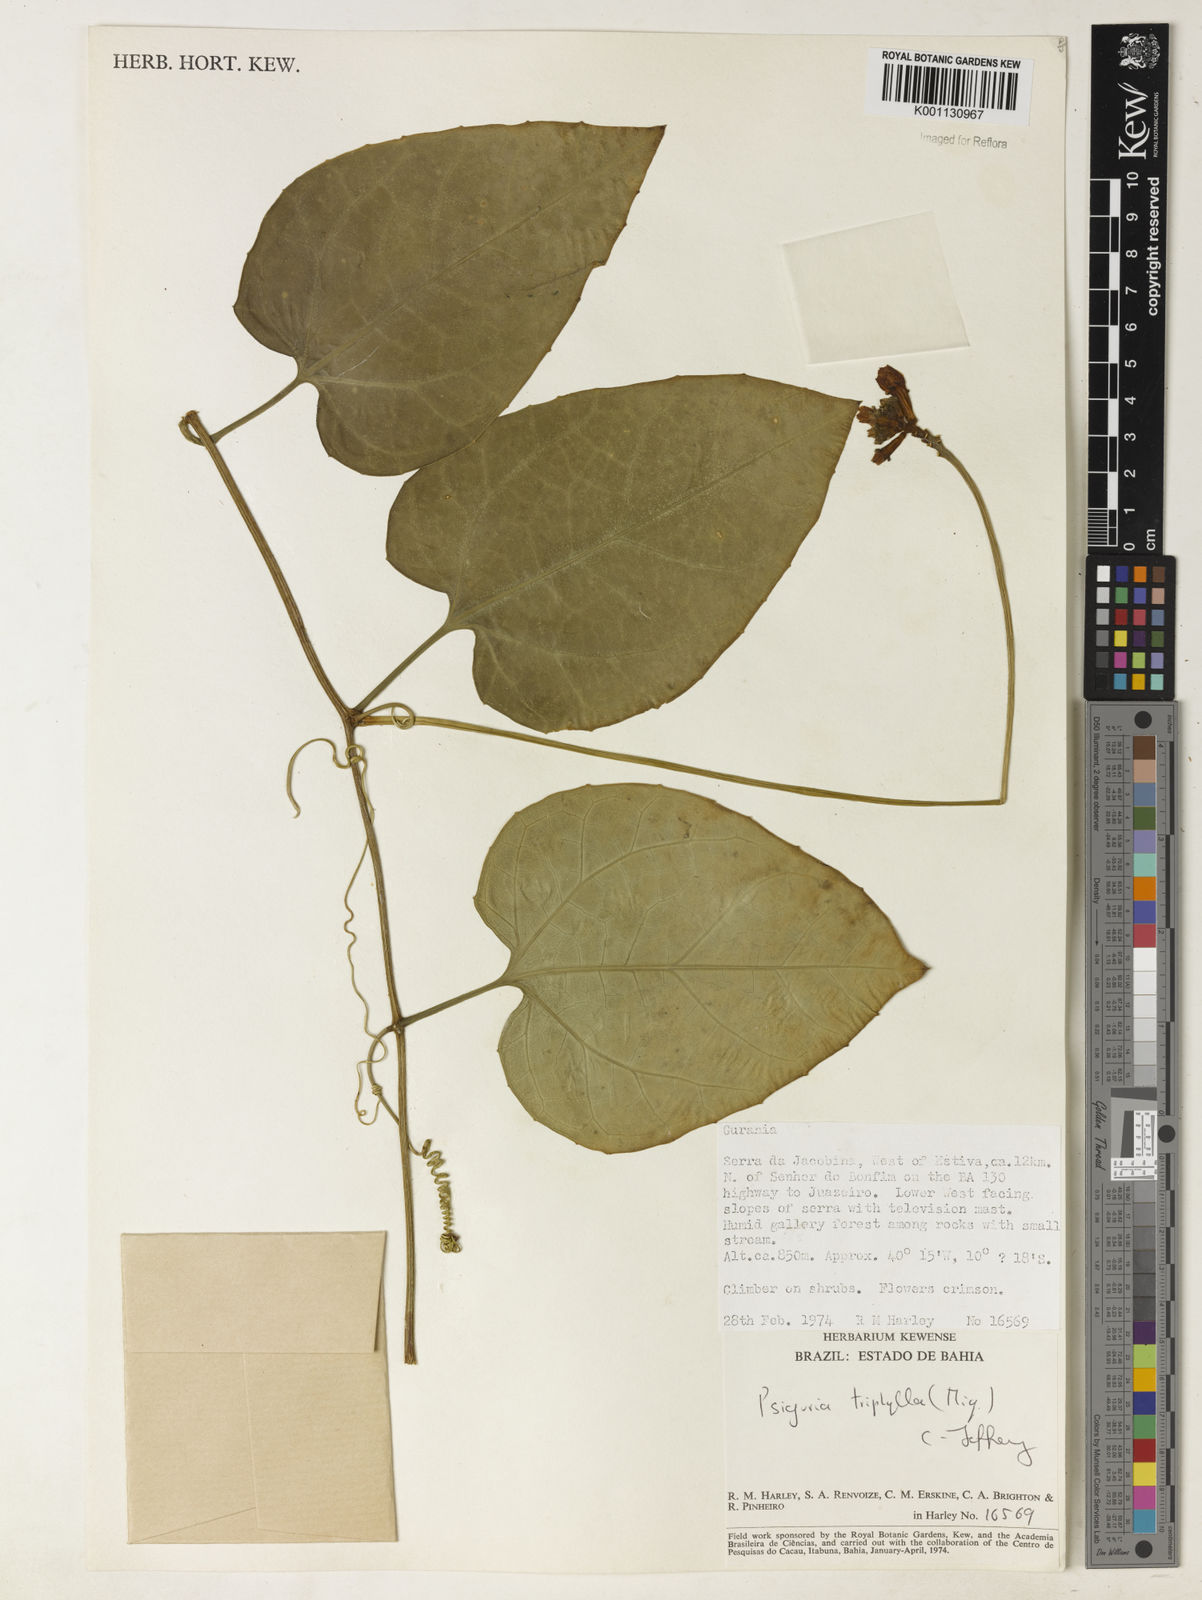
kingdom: Plantae
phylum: Tracheophyta
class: Magnoliopsida
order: Cucurbitales
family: Cucurbitaceae
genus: Psiguria
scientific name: Psiguria triphylla
